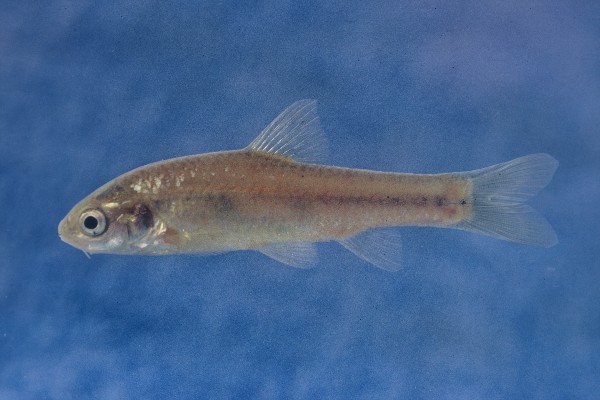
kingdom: Animalia
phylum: Chordata
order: Cypriniformes
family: Cyprinidae
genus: Enteromius
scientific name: Enteromius anoplus
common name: Chubbyhead barb
